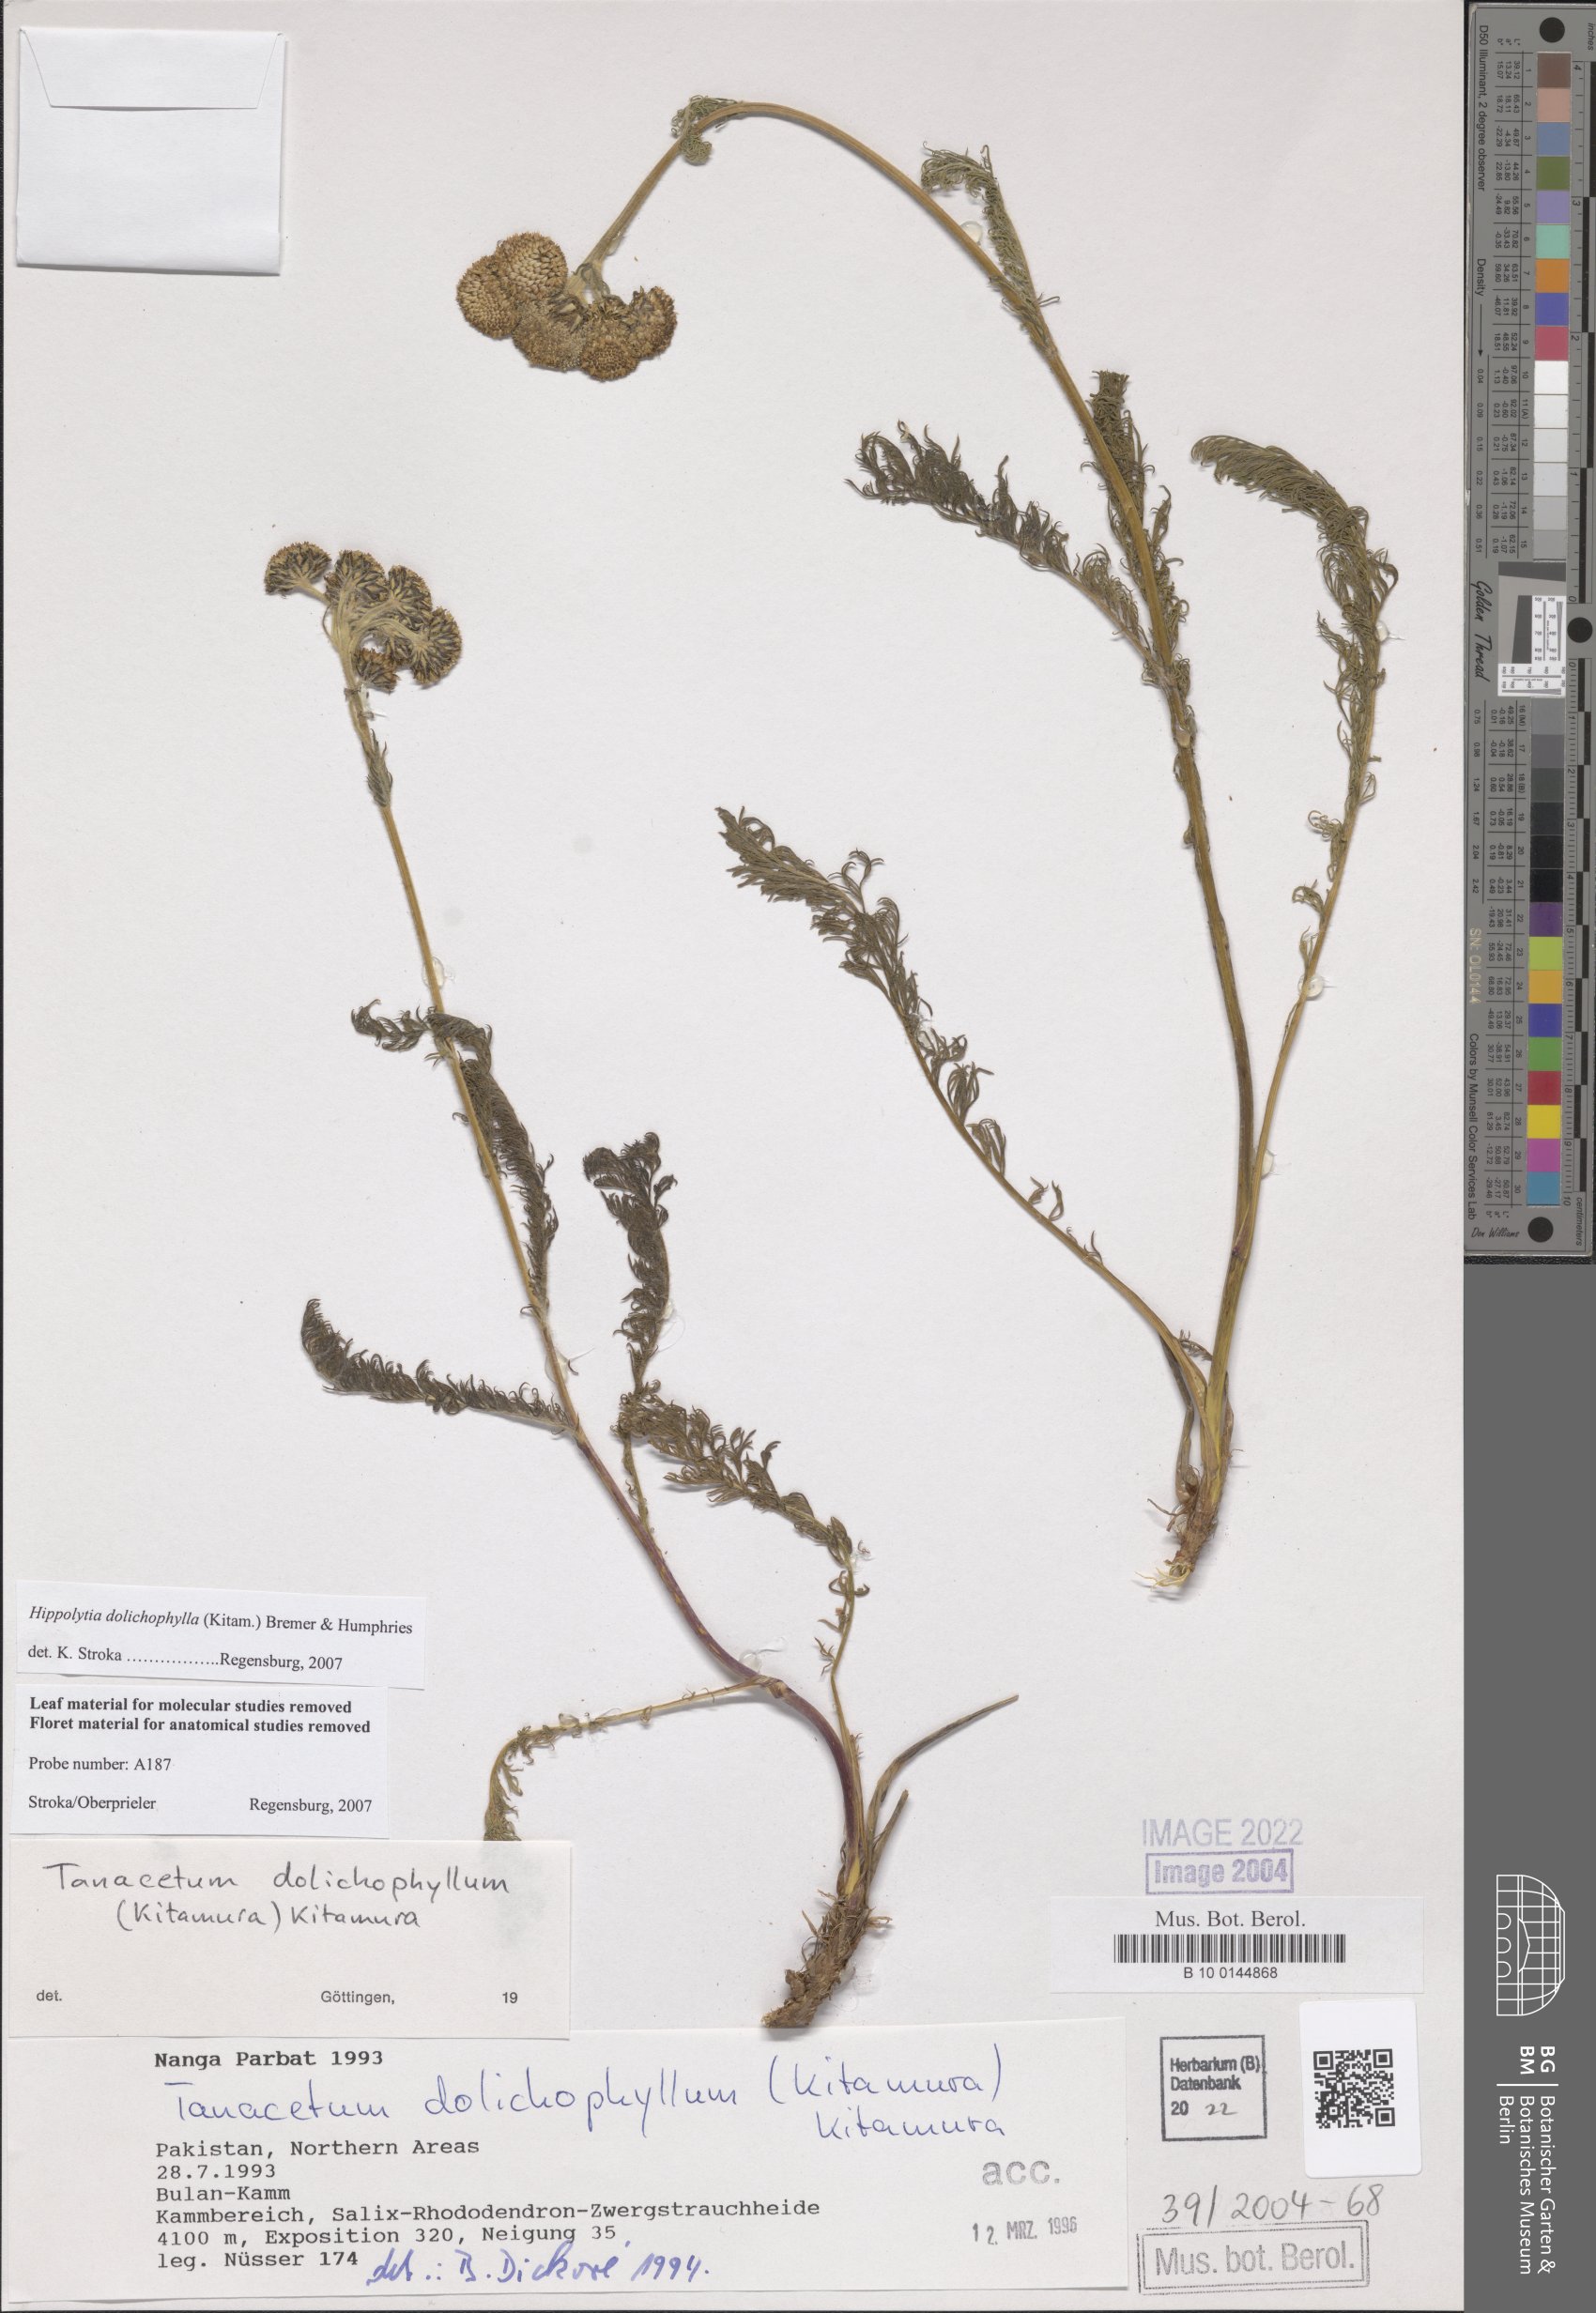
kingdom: Plantae
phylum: Tracheophyta
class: Magnoliopsida
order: Asterales
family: Asteraceae
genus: Hippolytia
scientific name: Hippolytia longifolia
